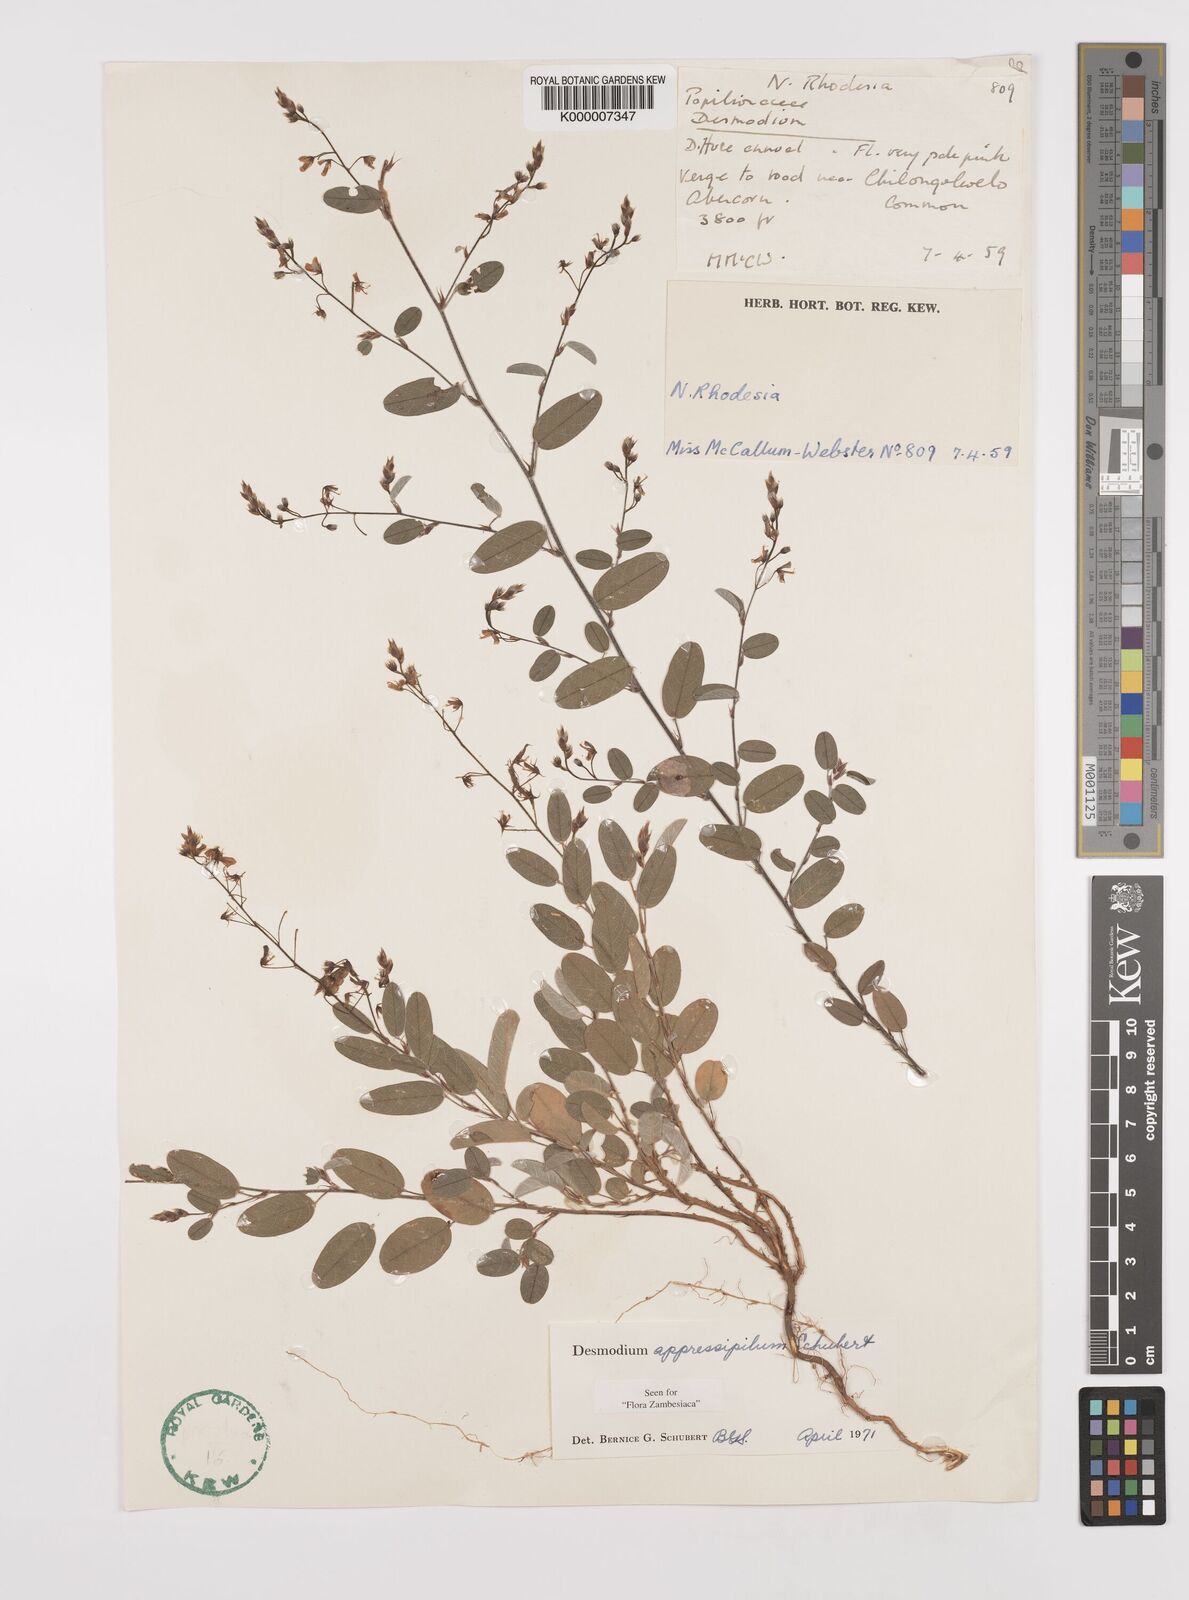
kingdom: Plantae
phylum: Tracheophyta
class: Magnoliopsida
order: Fabales
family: Fabaceae
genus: Grona
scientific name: Grona appressipila
